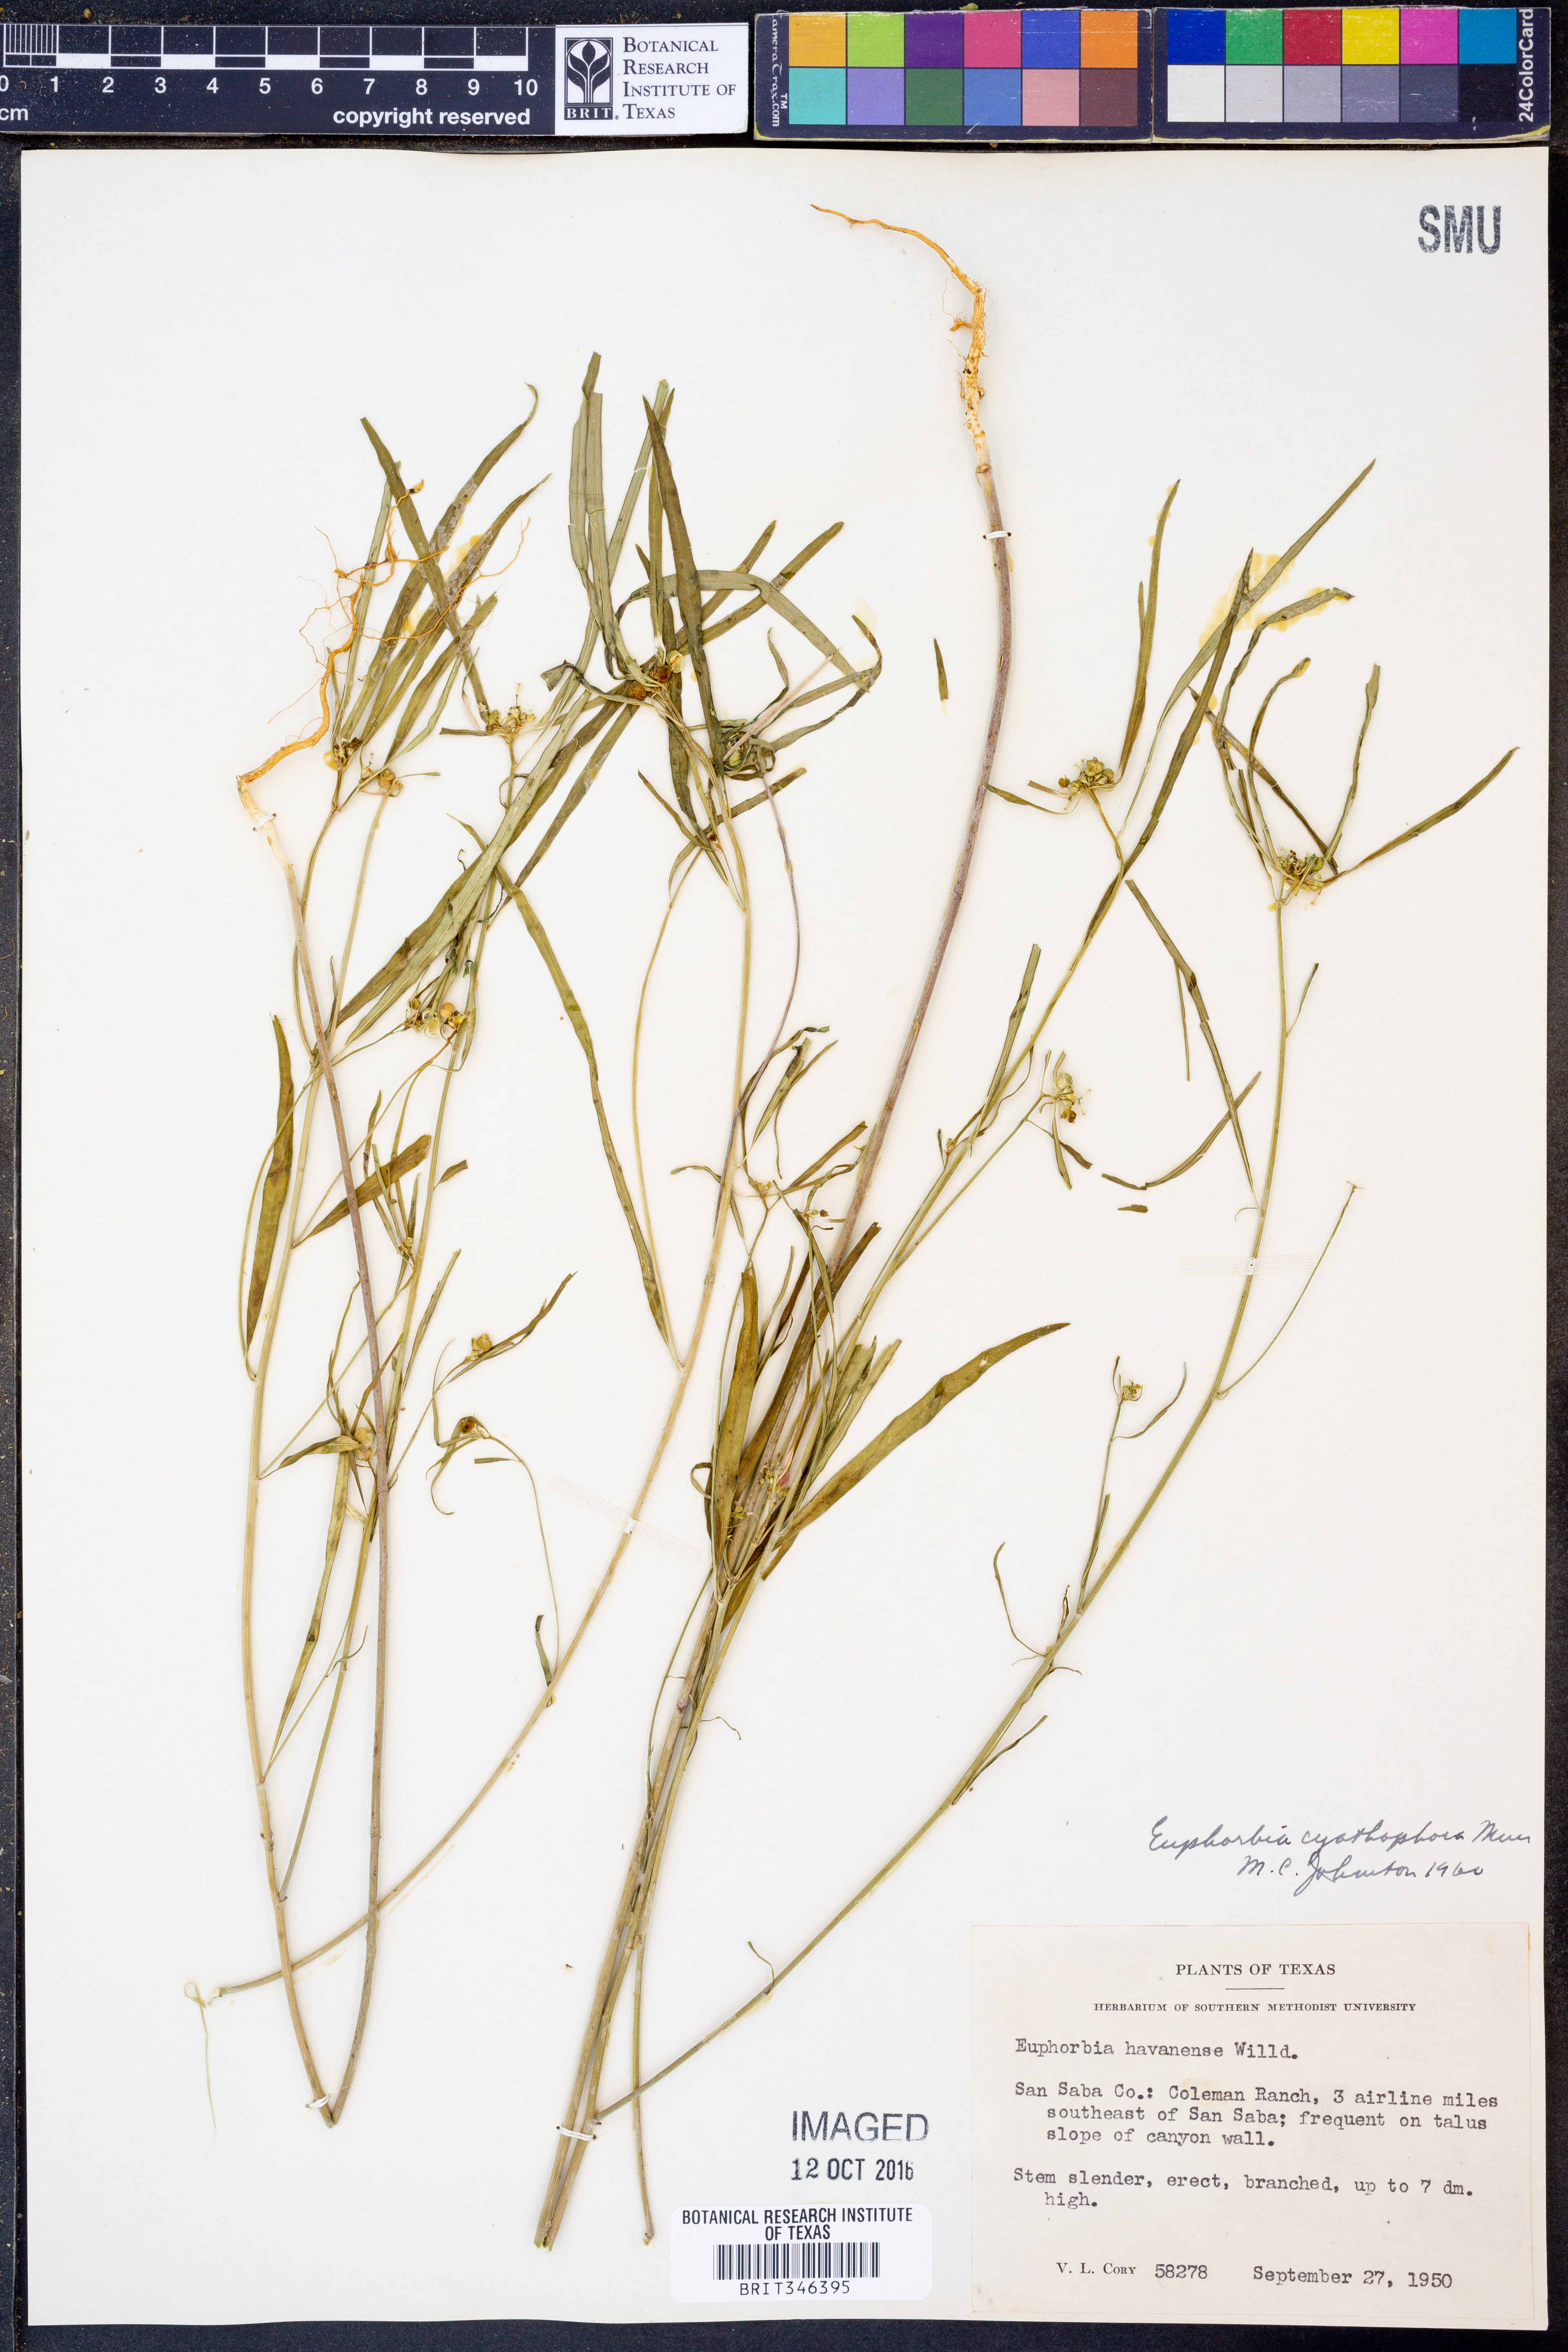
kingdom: Plantae
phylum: Tracheophyta
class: Magnoliopsida
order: Malpighiales
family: Euphorbiaceae
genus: Euphorbia
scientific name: Euphorbia heterophylla
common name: Mexican fireplant
